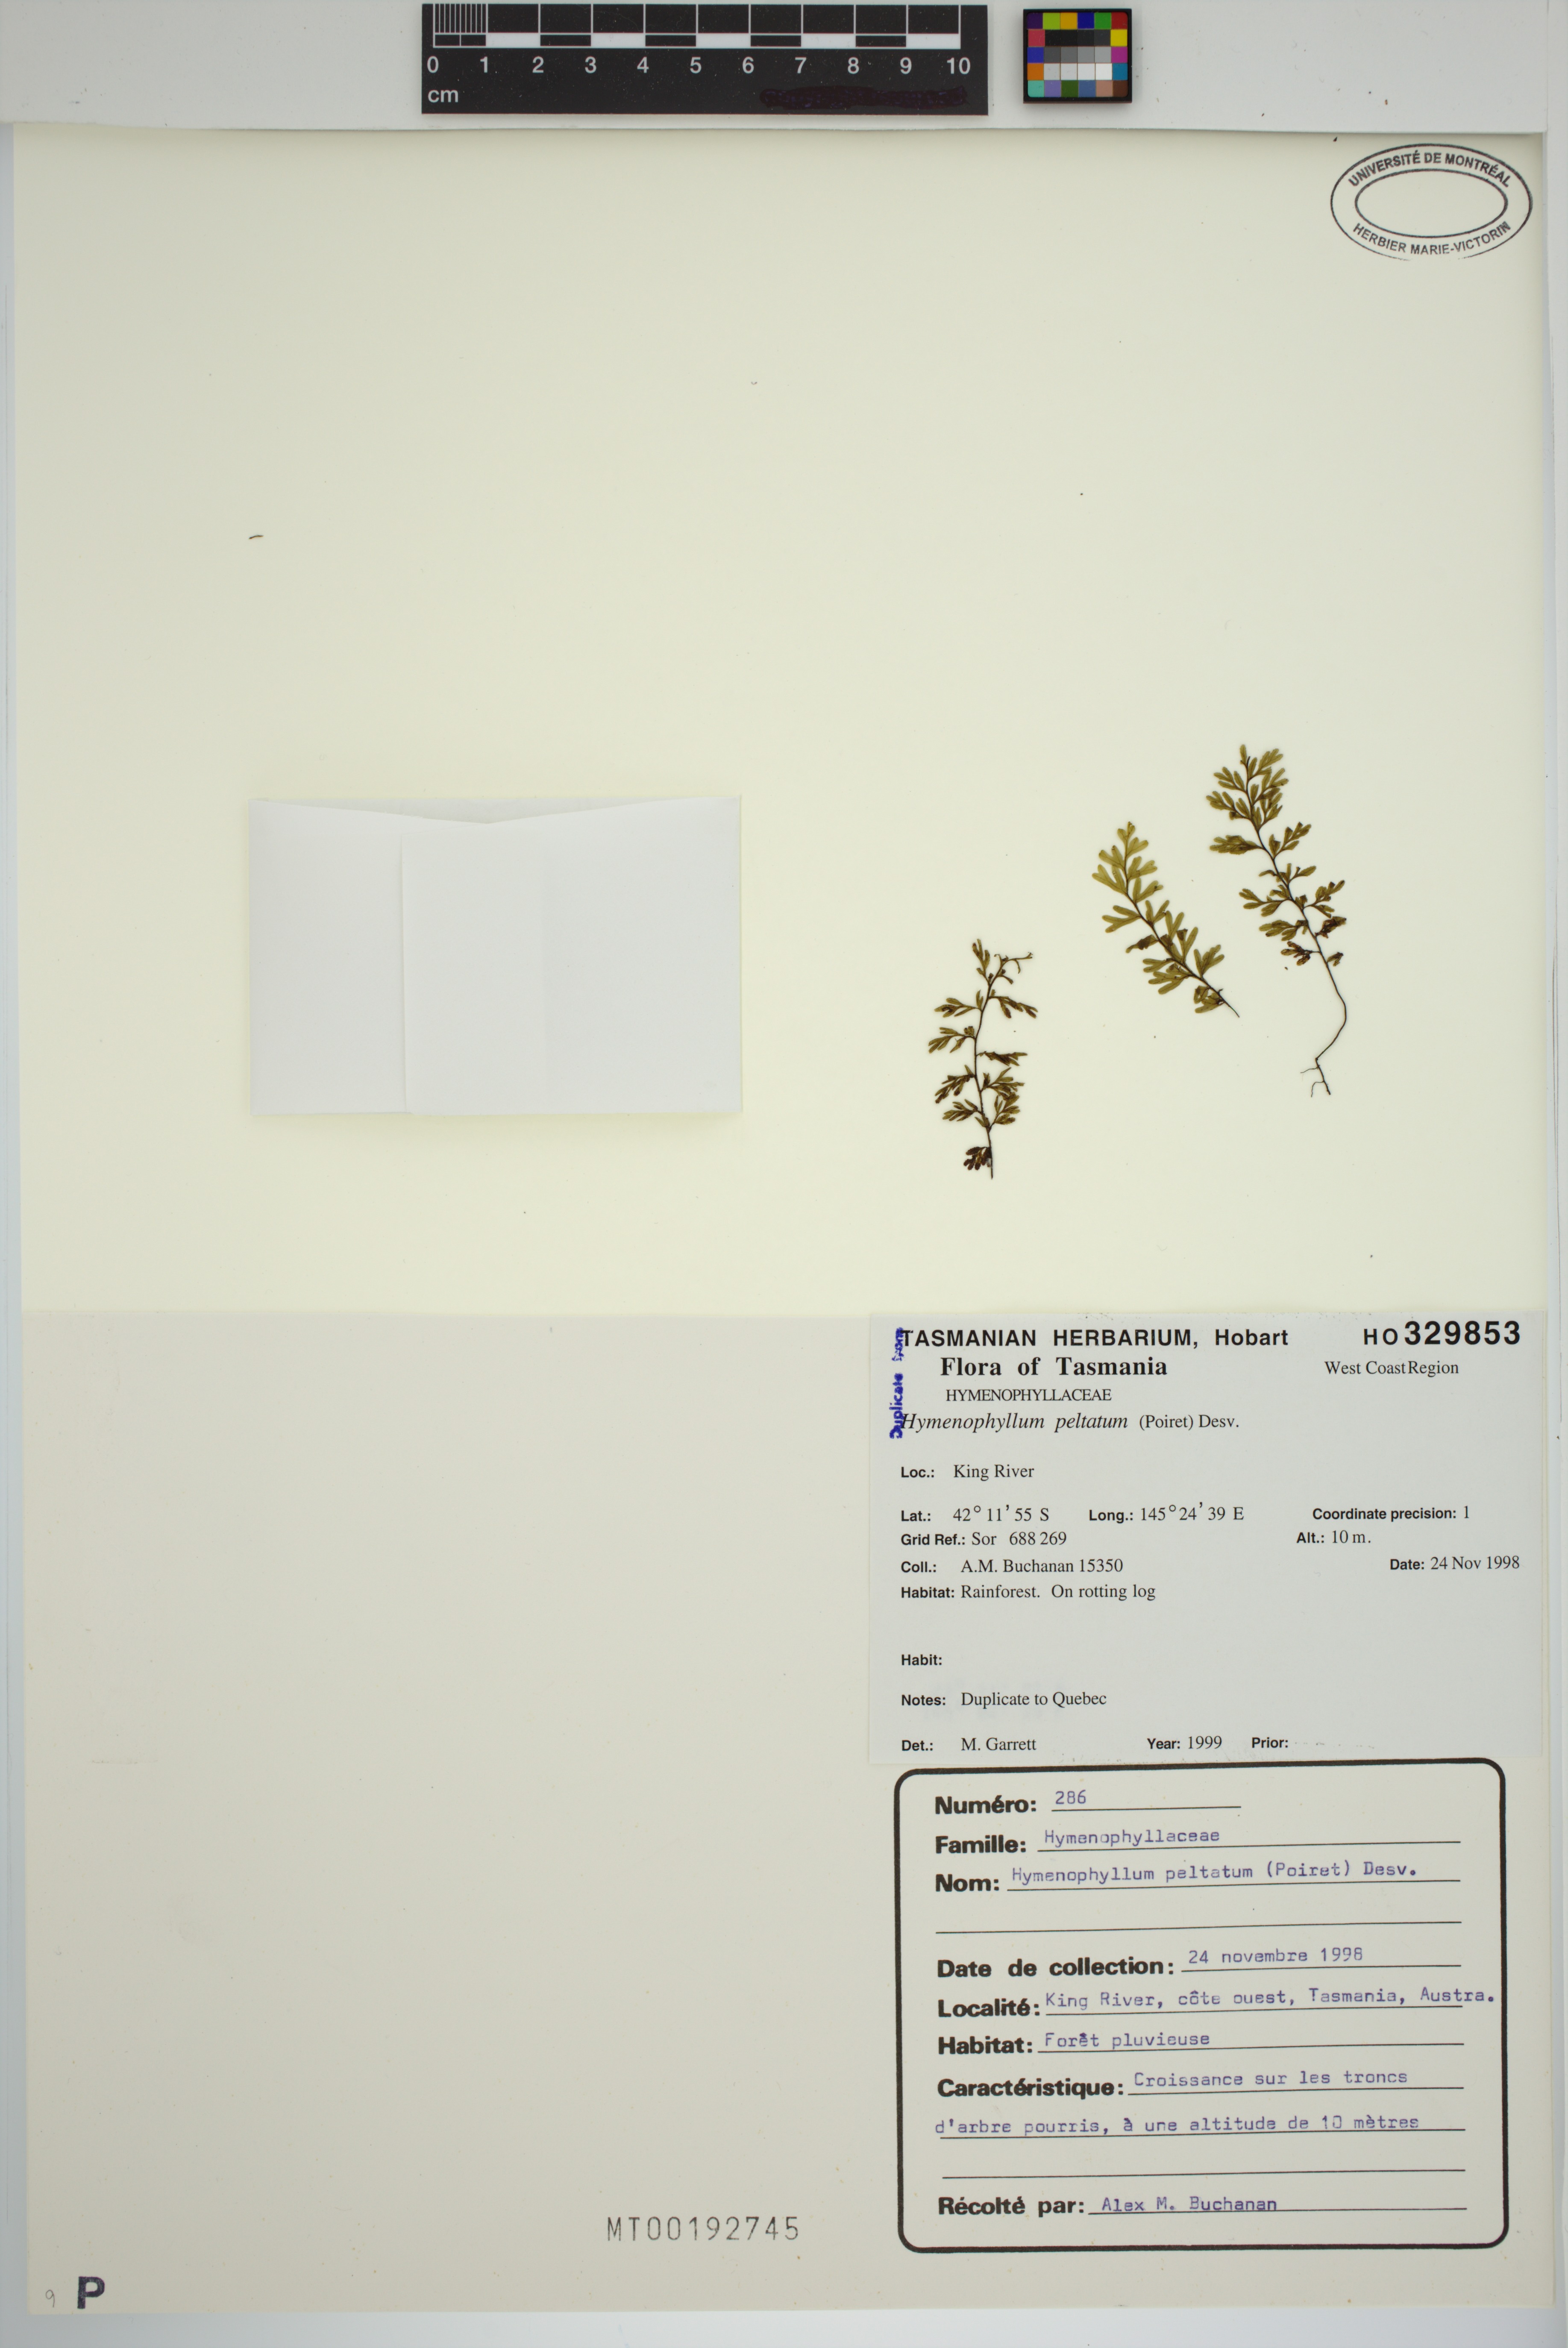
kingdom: Plantae
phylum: Tracheophyta
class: Polypodiopsida
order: Hymenophyllales
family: Hymenophyllaceae
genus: Hymenophyllum
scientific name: Hymenophyllum peltatum
